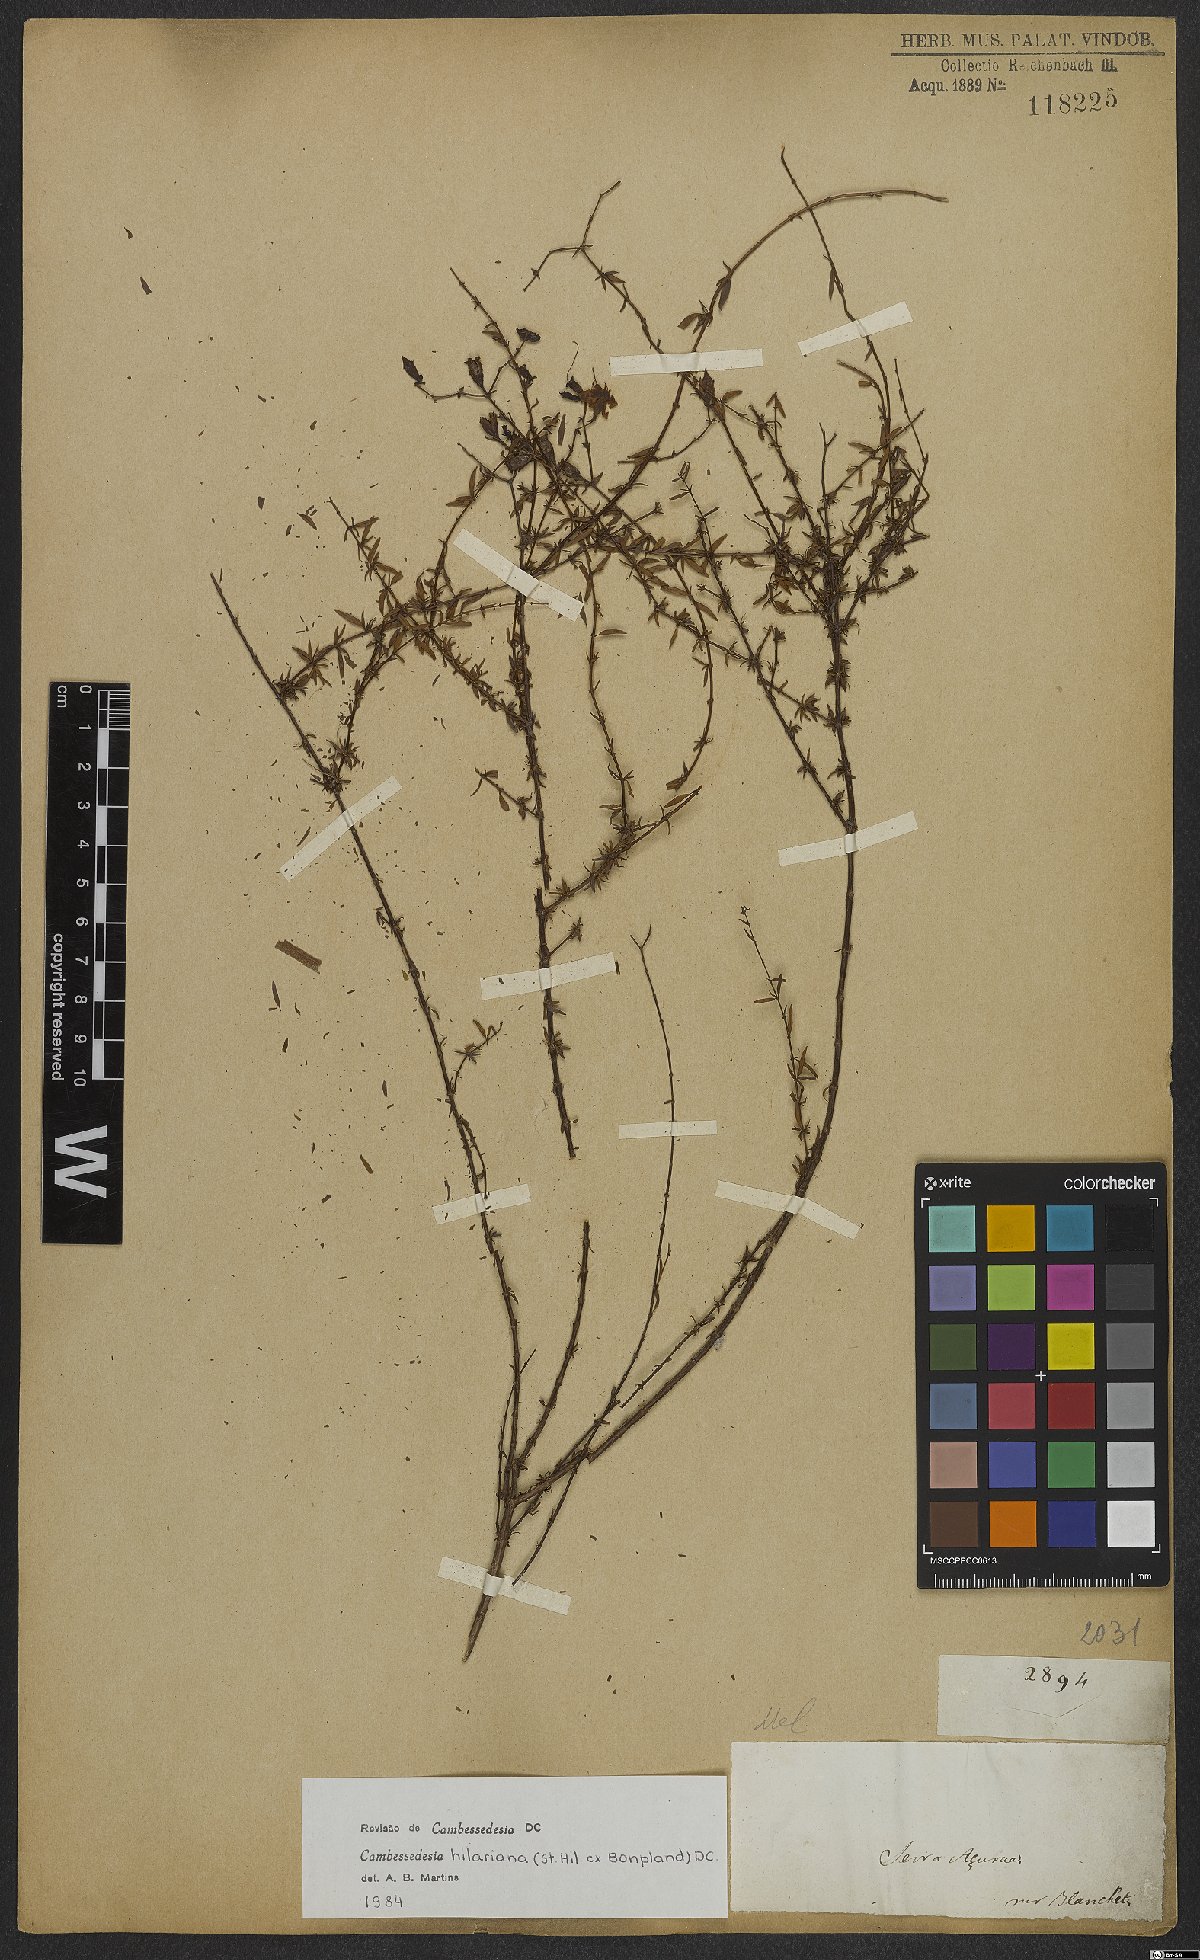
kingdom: Plantae
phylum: Tracheophyta
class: Magnoliopsida
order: Myrtales
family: Melastomataceae
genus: Cambessedesia
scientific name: Cambessedesia hilariana
